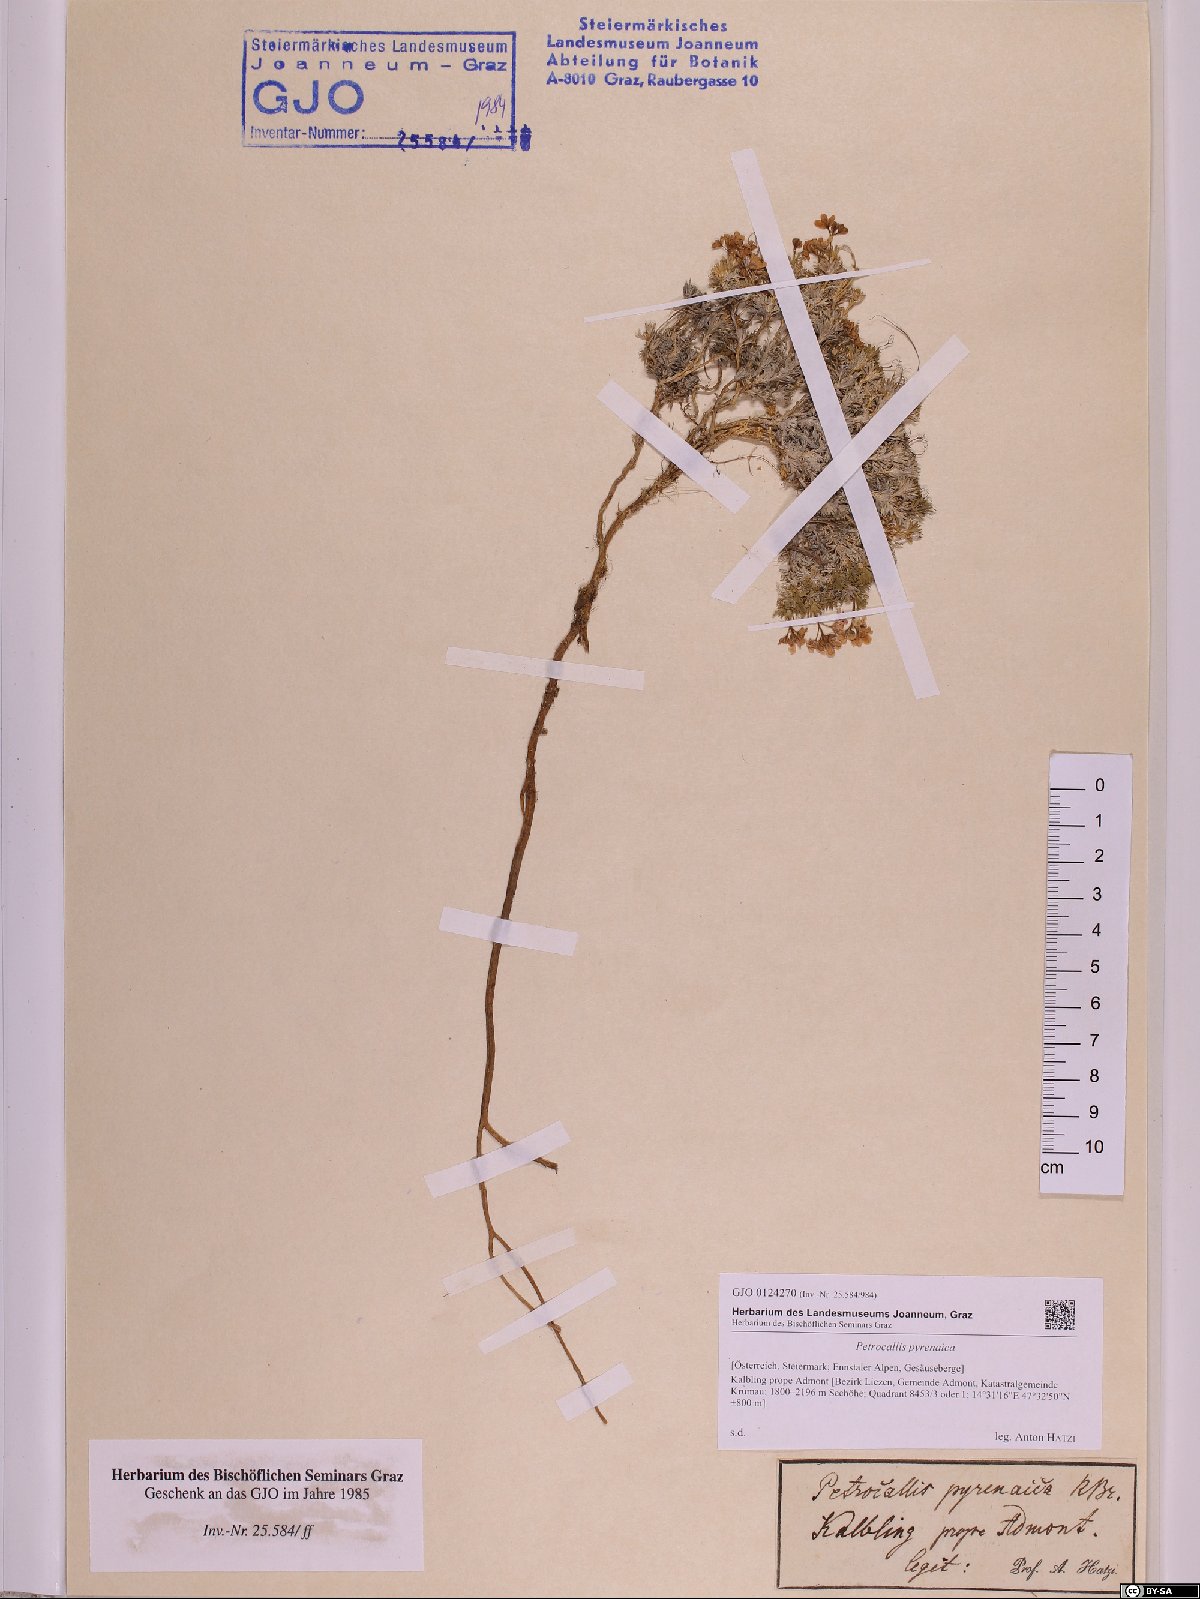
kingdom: Plantae
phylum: Tracheophyta
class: Magnoliopsida
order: Brassicales
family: Brassicaceae
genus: Petrocallis
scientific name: Petrocallis pyrenaica
